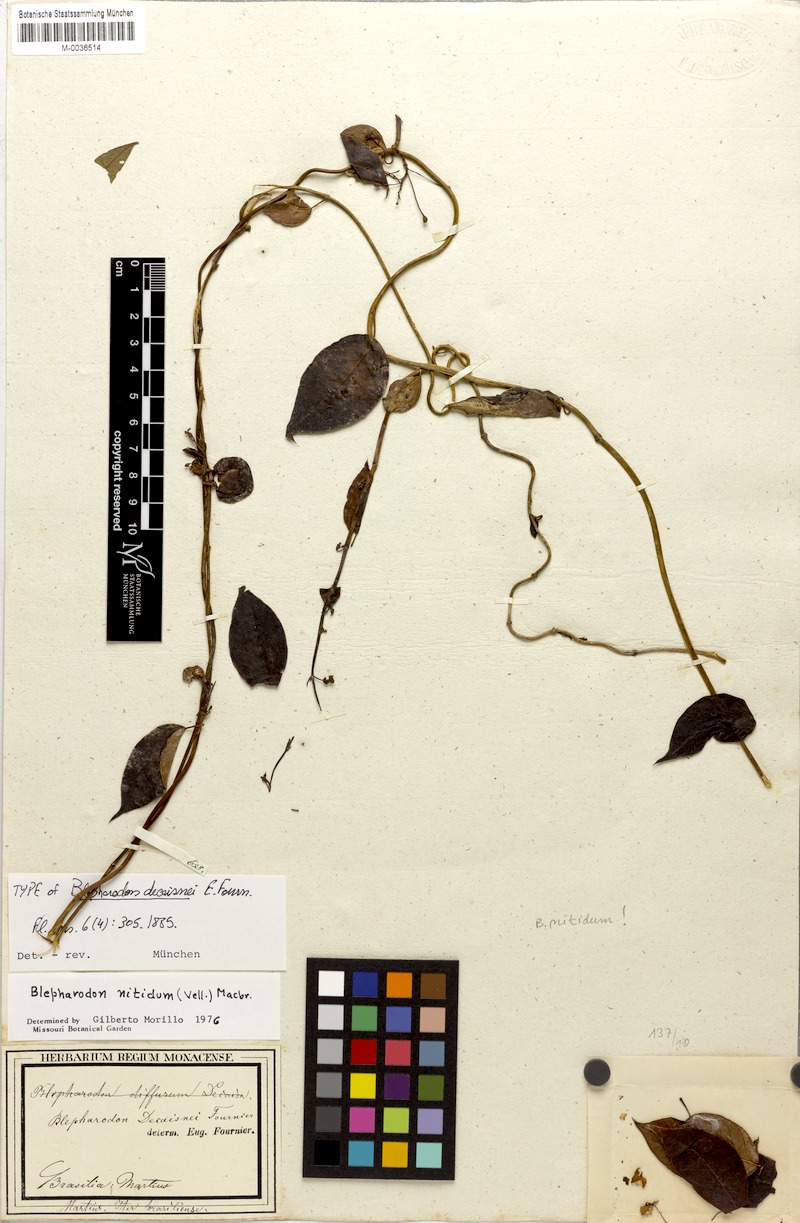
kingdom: Plantae
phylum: Tracheophyta
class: Magnoliopsida
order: Gentianales
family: Apocynaceae
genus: Blepharodon
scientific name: Blepharodon pictum
